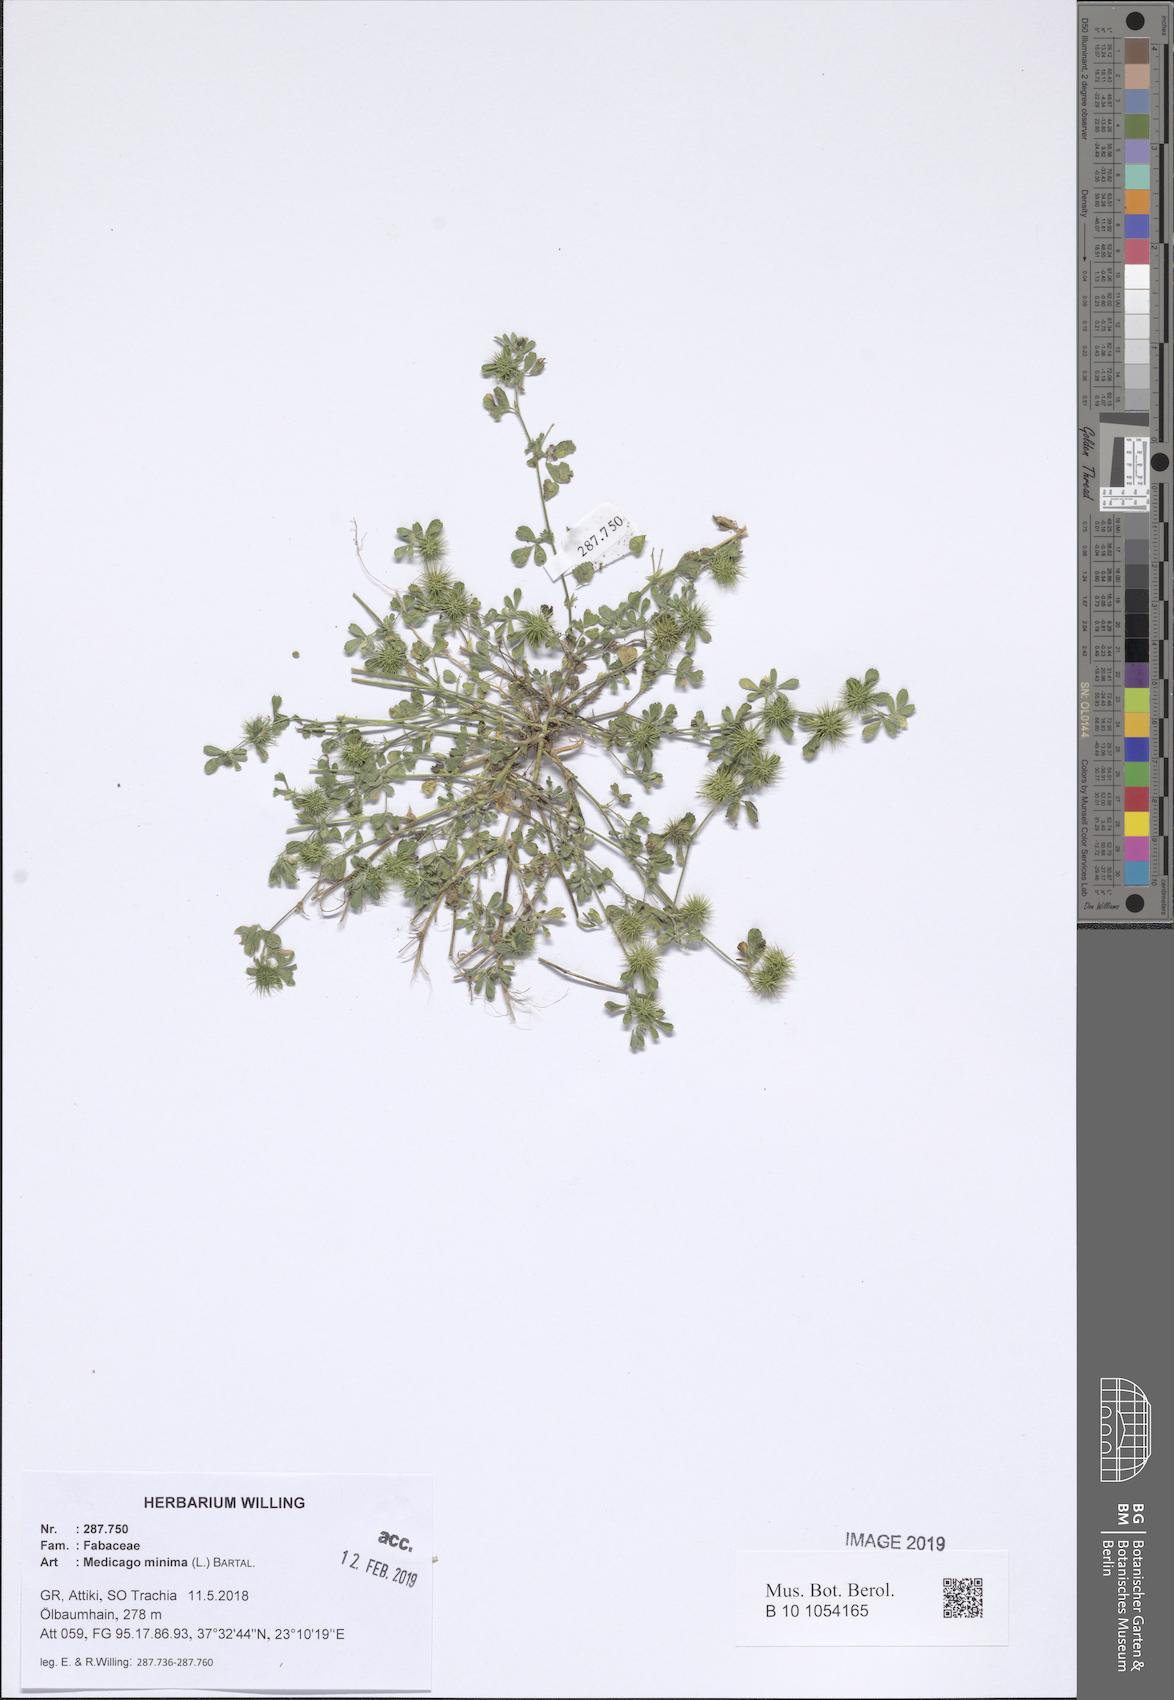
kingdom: Plantae
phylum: Tracheophyta
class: Magnoliopsida
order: Fabales
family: Fabaceae
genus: Medicago
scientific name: Medicago minima
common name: Little bur-clover
